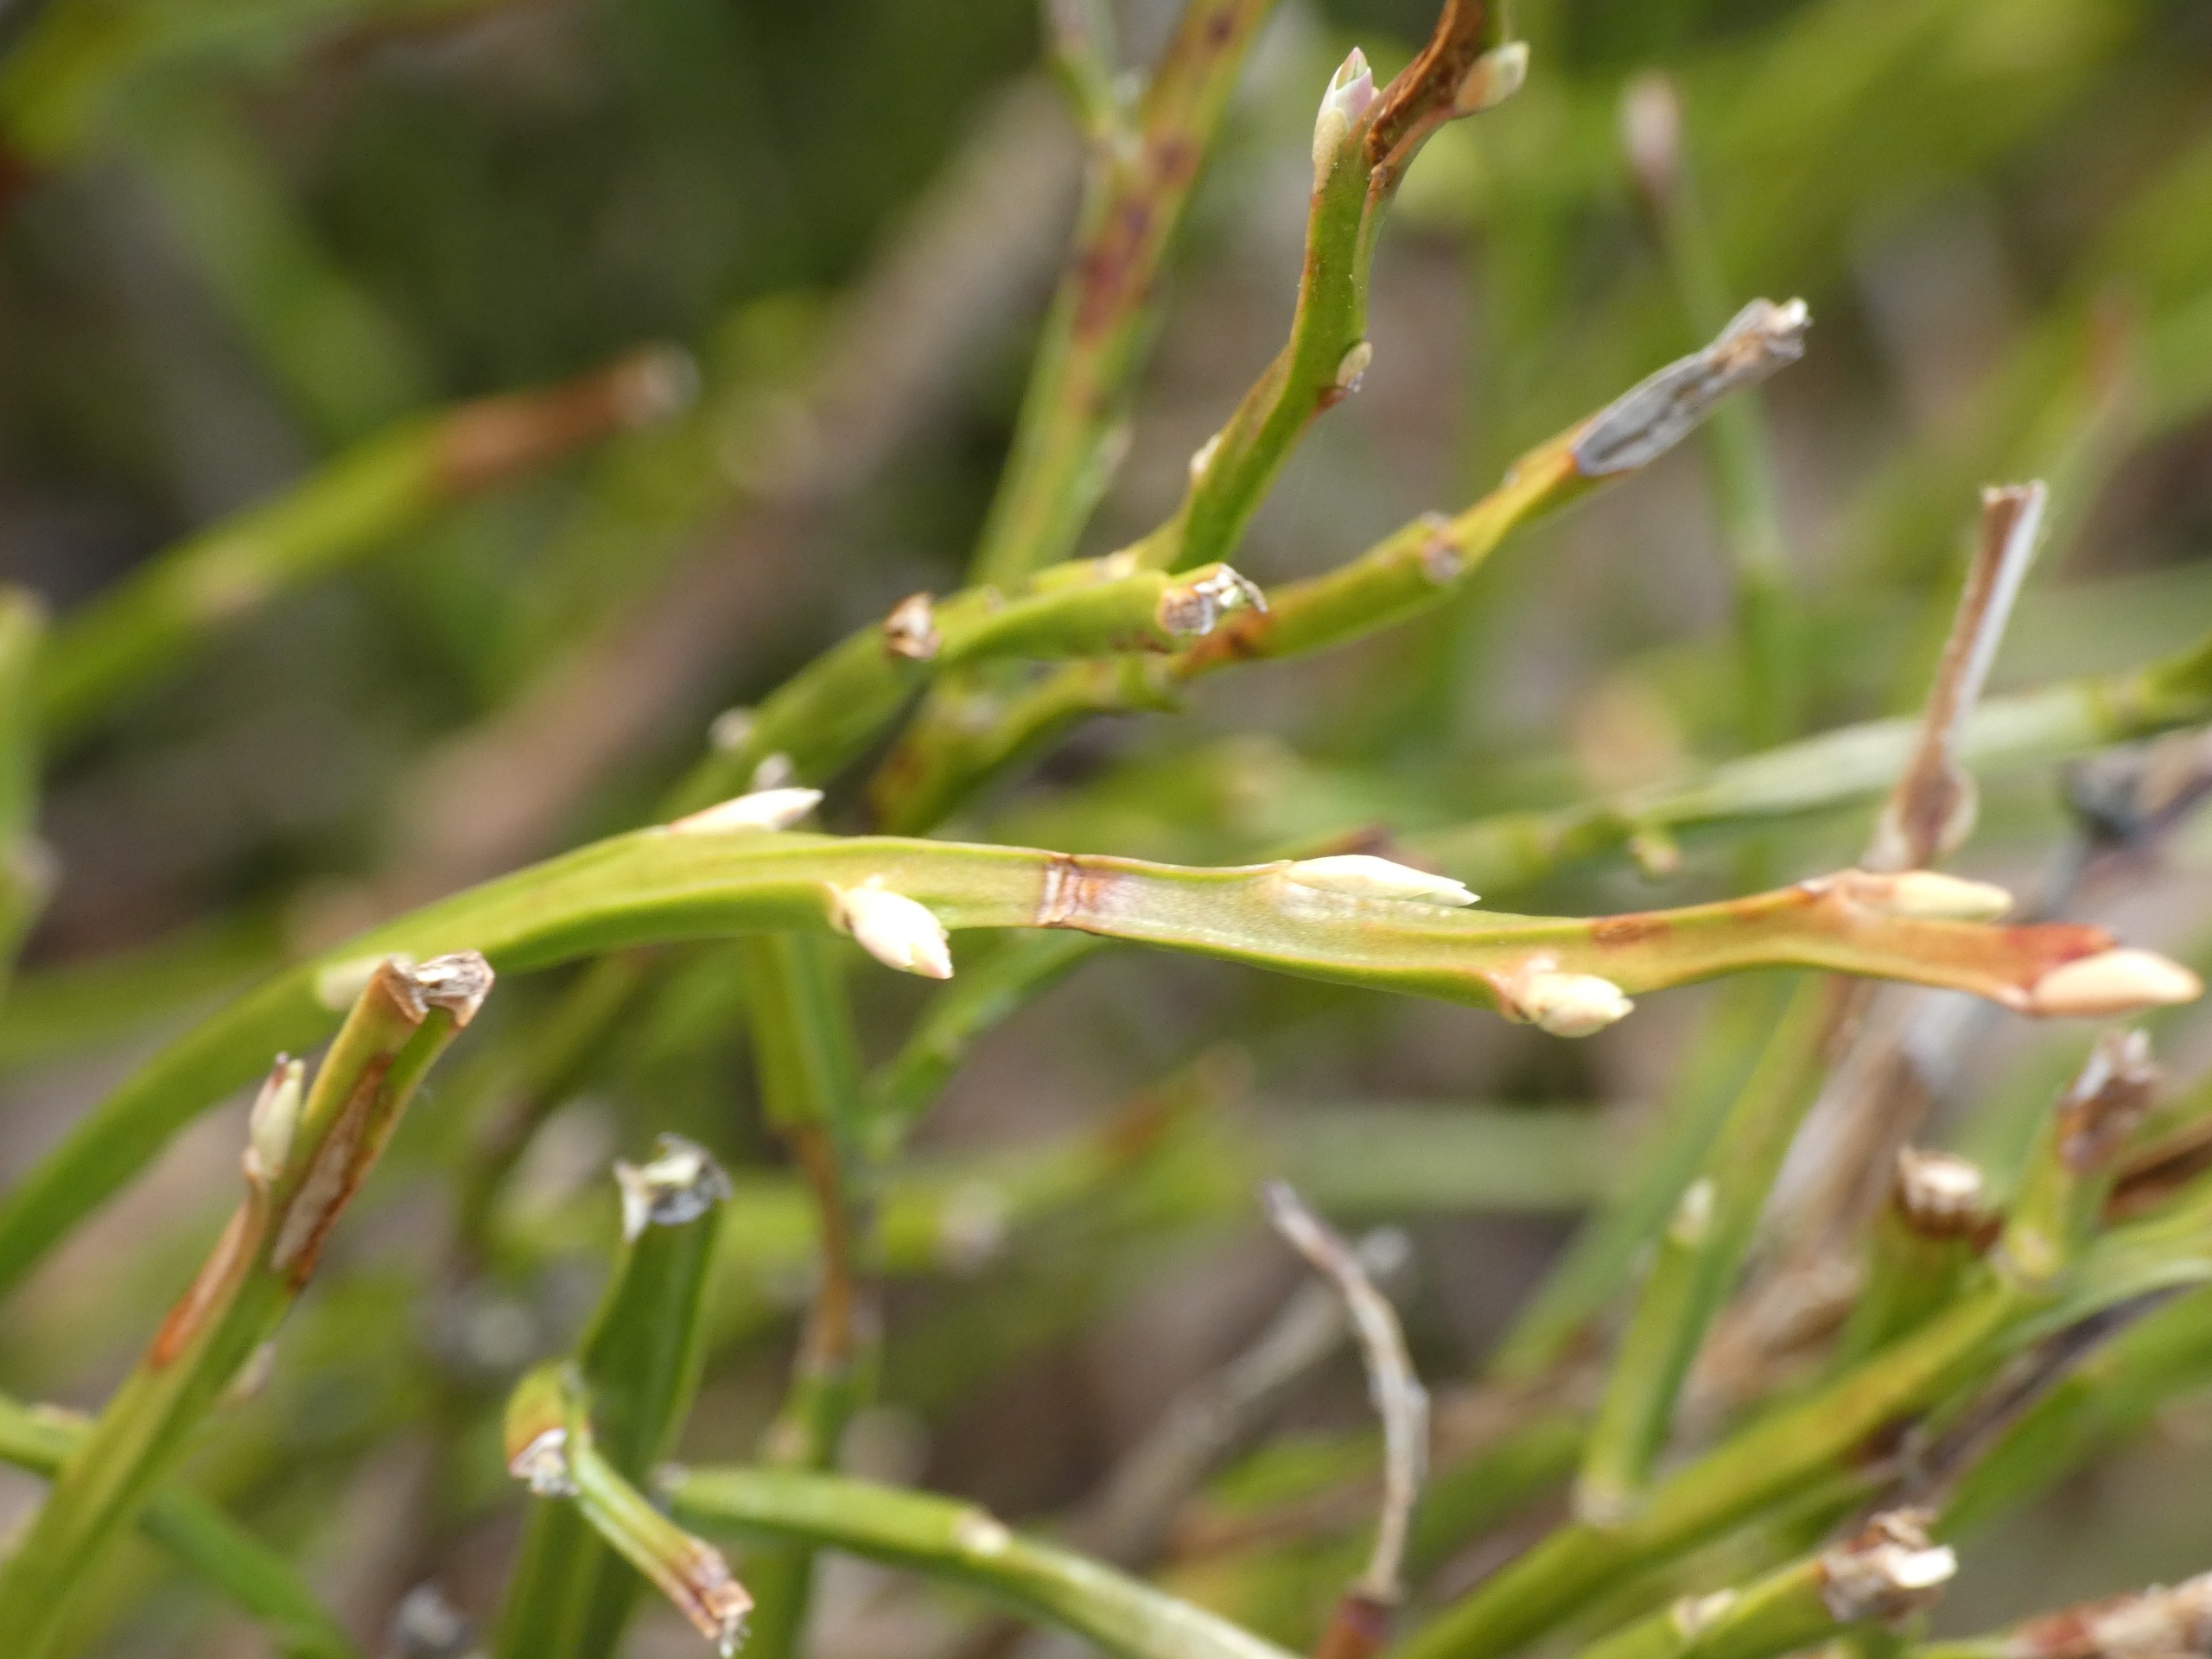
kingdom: Plantae
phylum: Tracheophyta
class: Magnoliopsida
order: Ericales
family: Ericaceae
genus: Vaccinium
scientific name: Vaccinium myrtillus
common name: Blåbær
